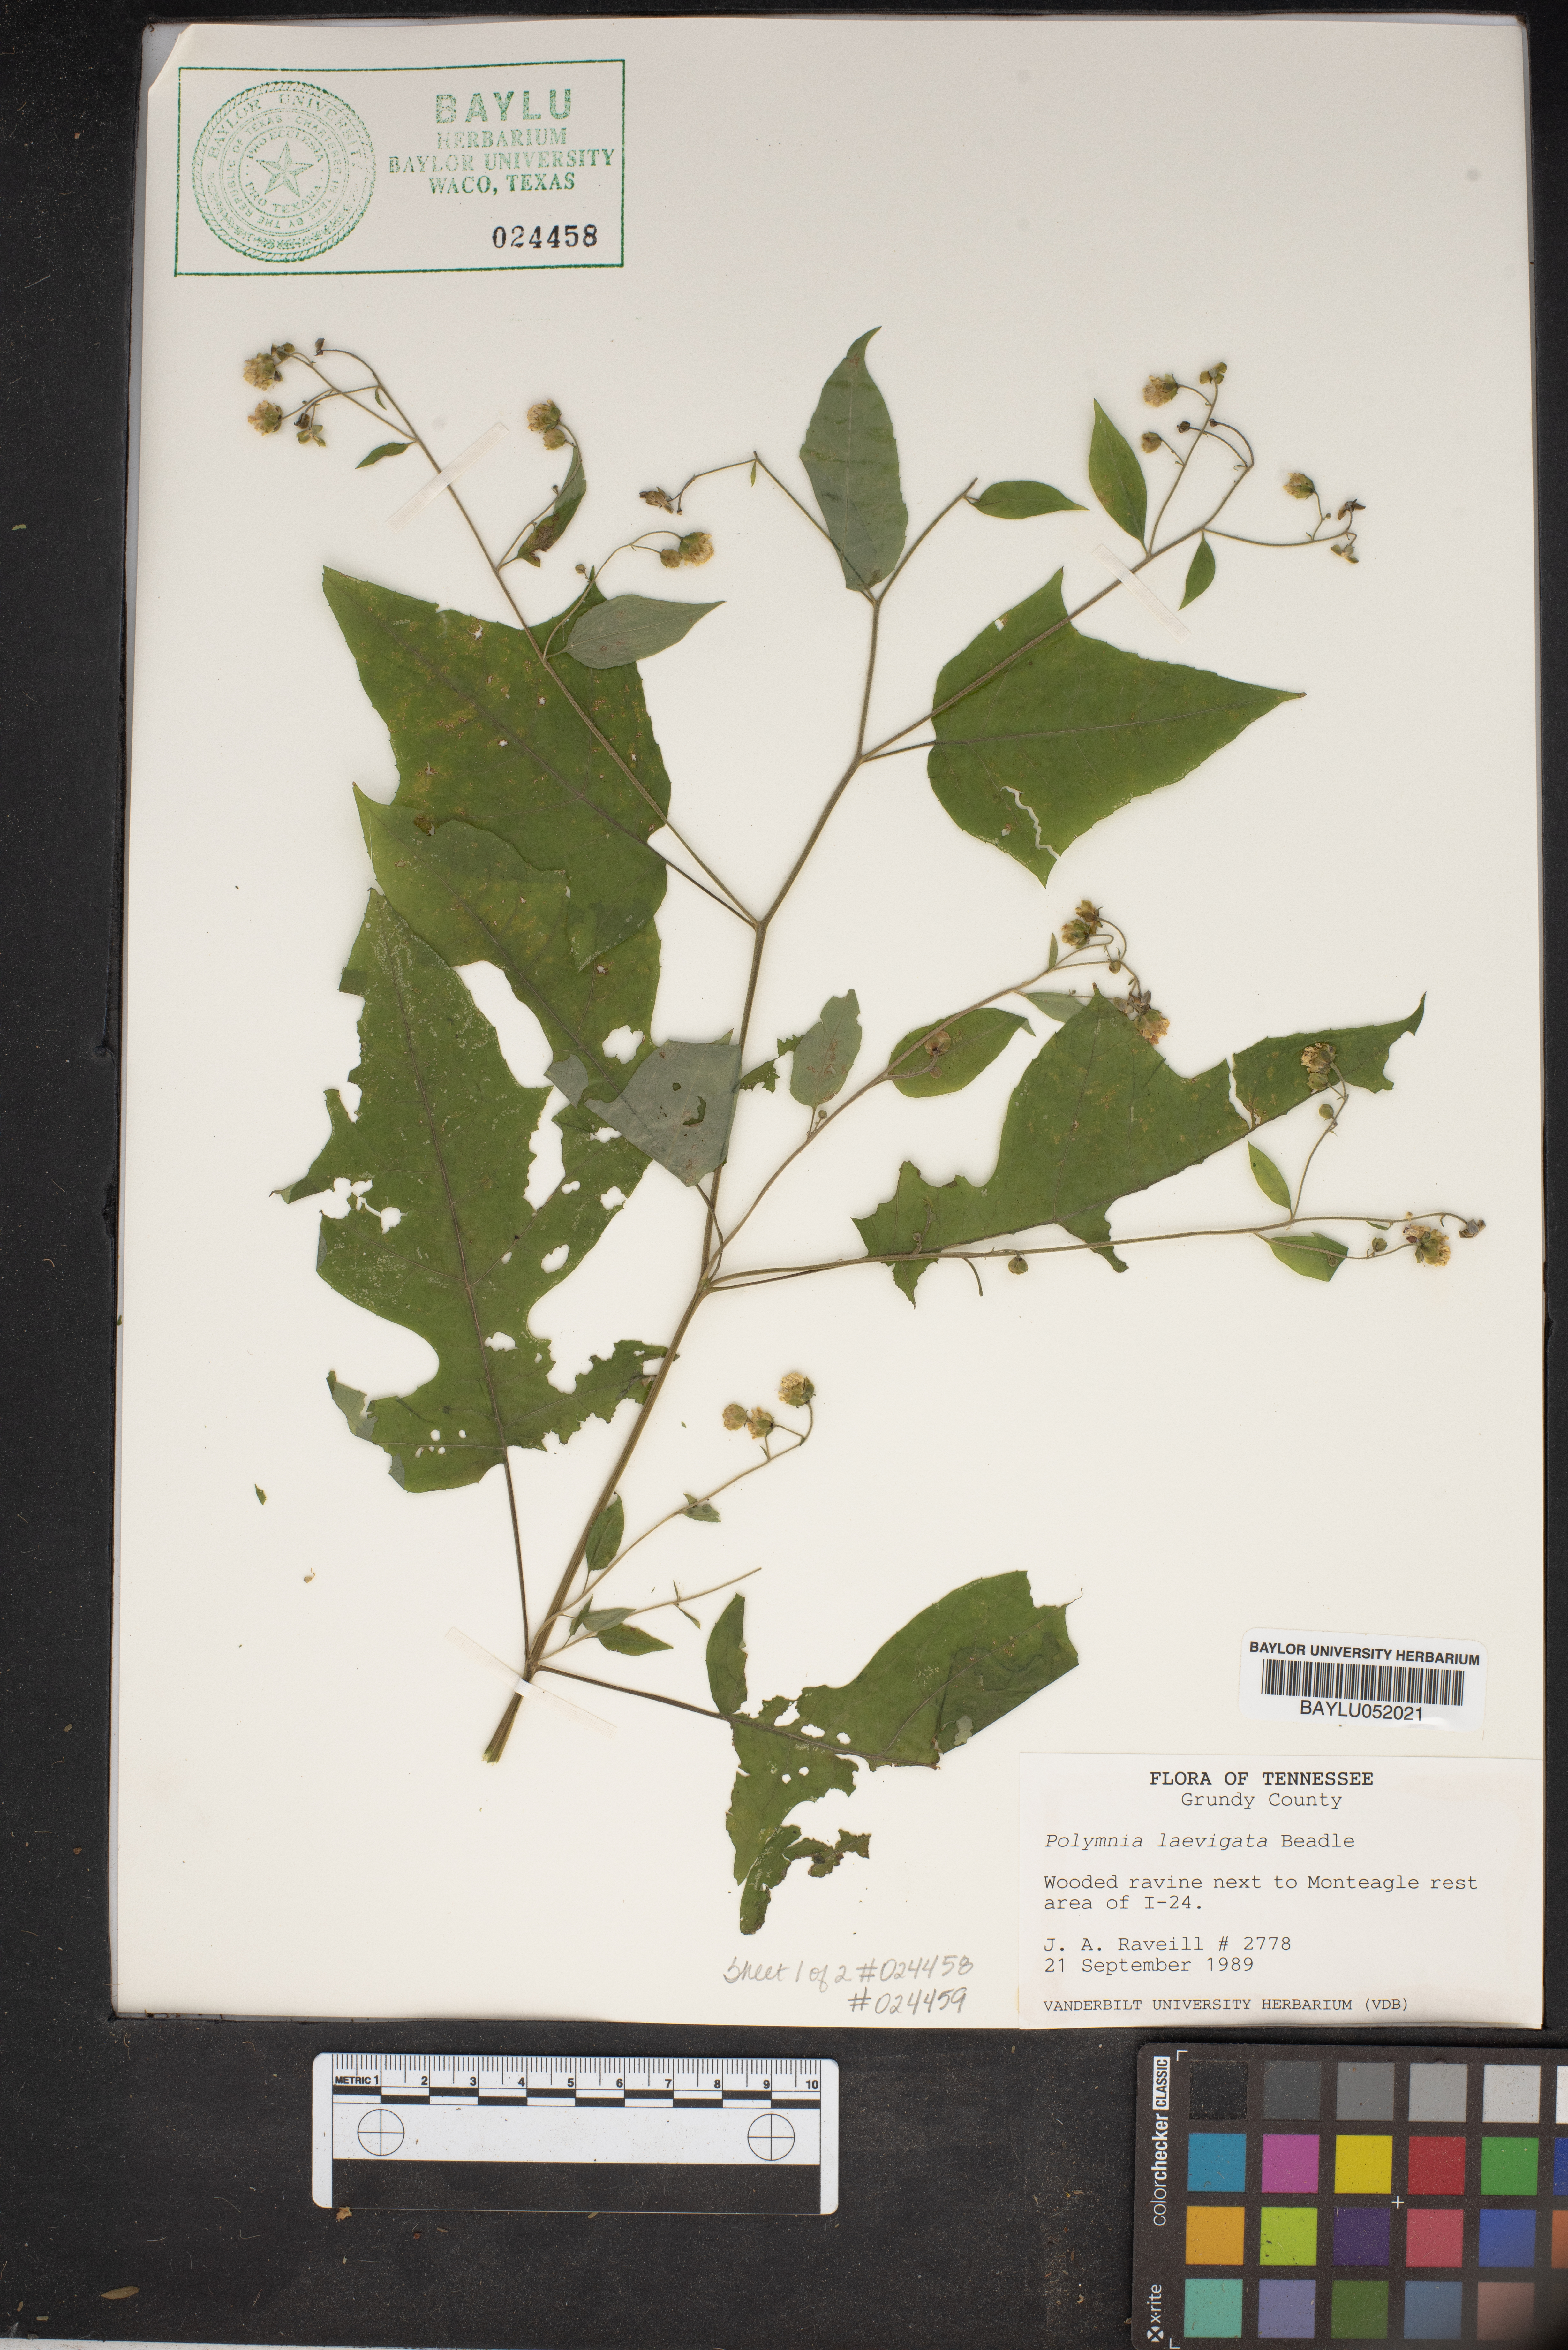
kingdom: Plantae
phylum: Tracheophyta
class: Magnoliopsida
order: Asterales
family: Asteraceae
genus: Polymnia
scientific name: Polymnia laevigata
